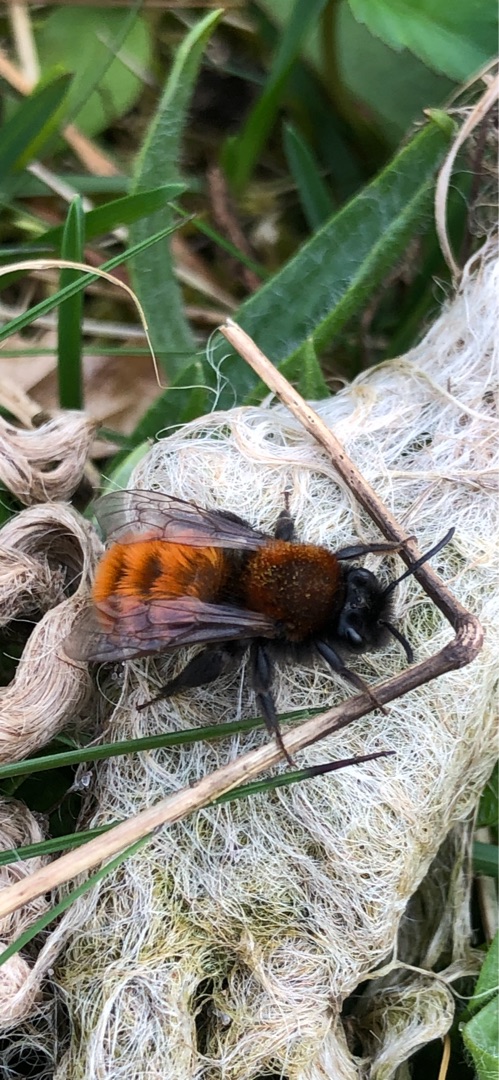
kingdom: Animalia
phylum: Arthropoda
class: Insecta
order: Hymenoptera
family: Andrenidae
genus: Andrena
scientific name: Andrena fulva
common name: Rødpelset jordbi
